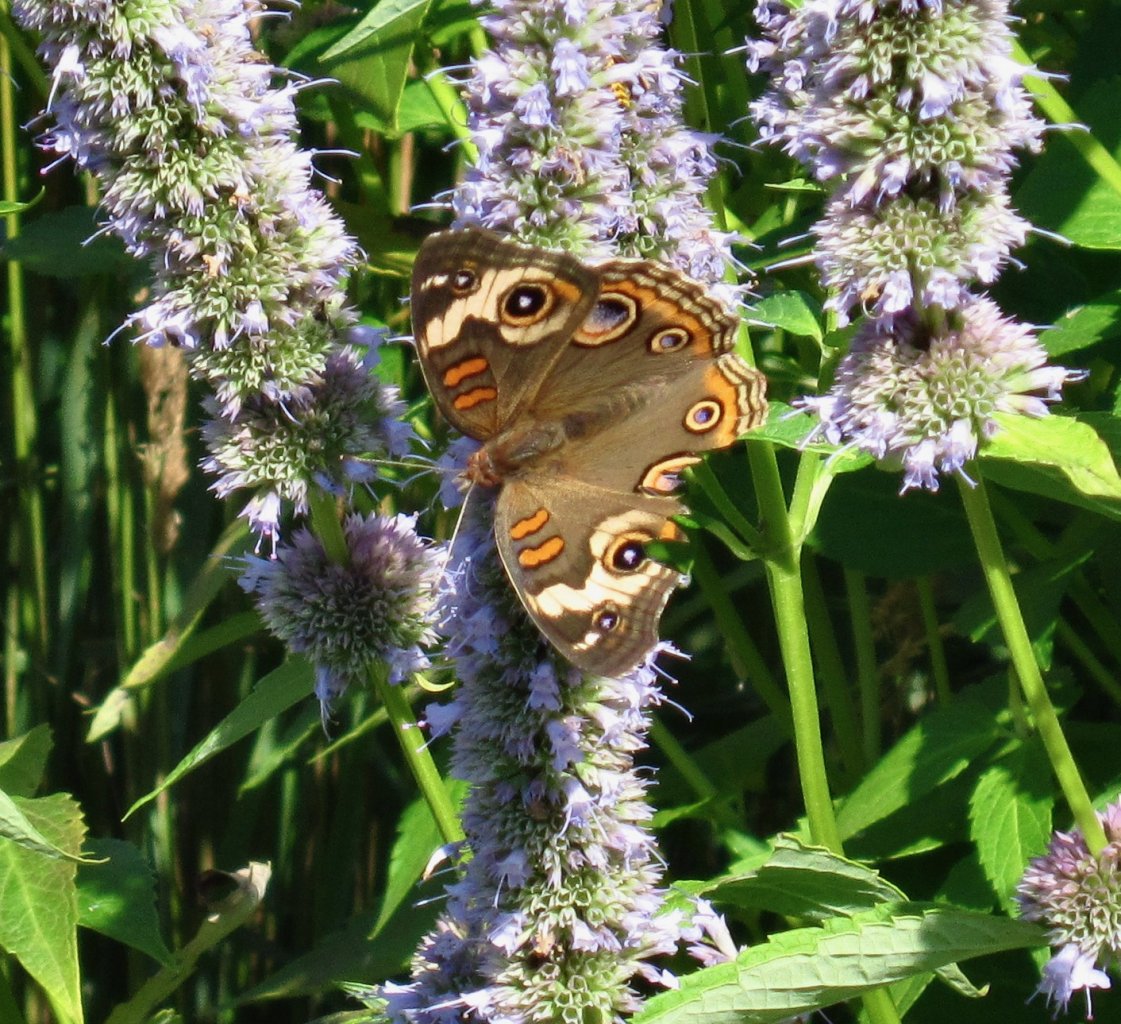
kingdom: Animalia
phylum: Arthropoda
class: Insecta
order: Lepidoptera
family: Nymphalidae
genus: Junonia
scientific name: Junonia coenia
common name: Common Buckeye
